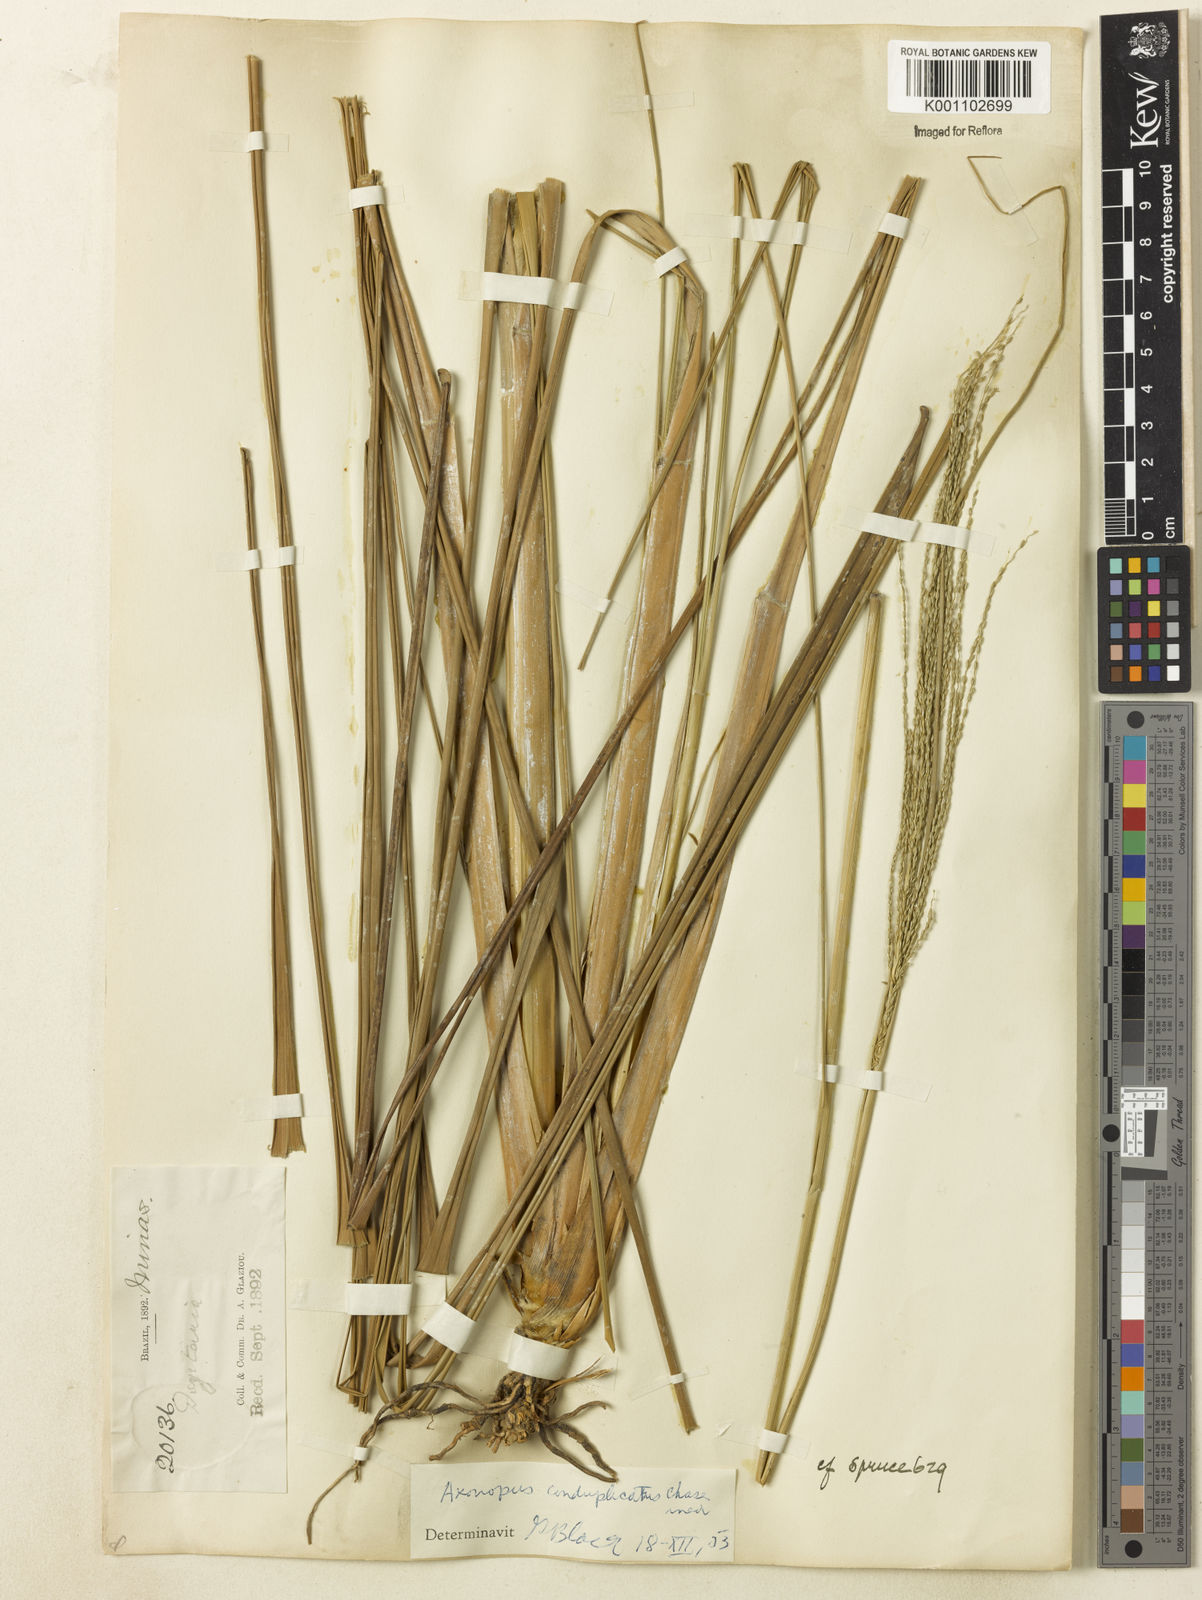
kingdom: Plantae
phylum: Tracheophyta
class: Liliopsida
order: Poales
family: Poaceae
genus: Axonopus
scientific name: Axonopus laxiflorus
